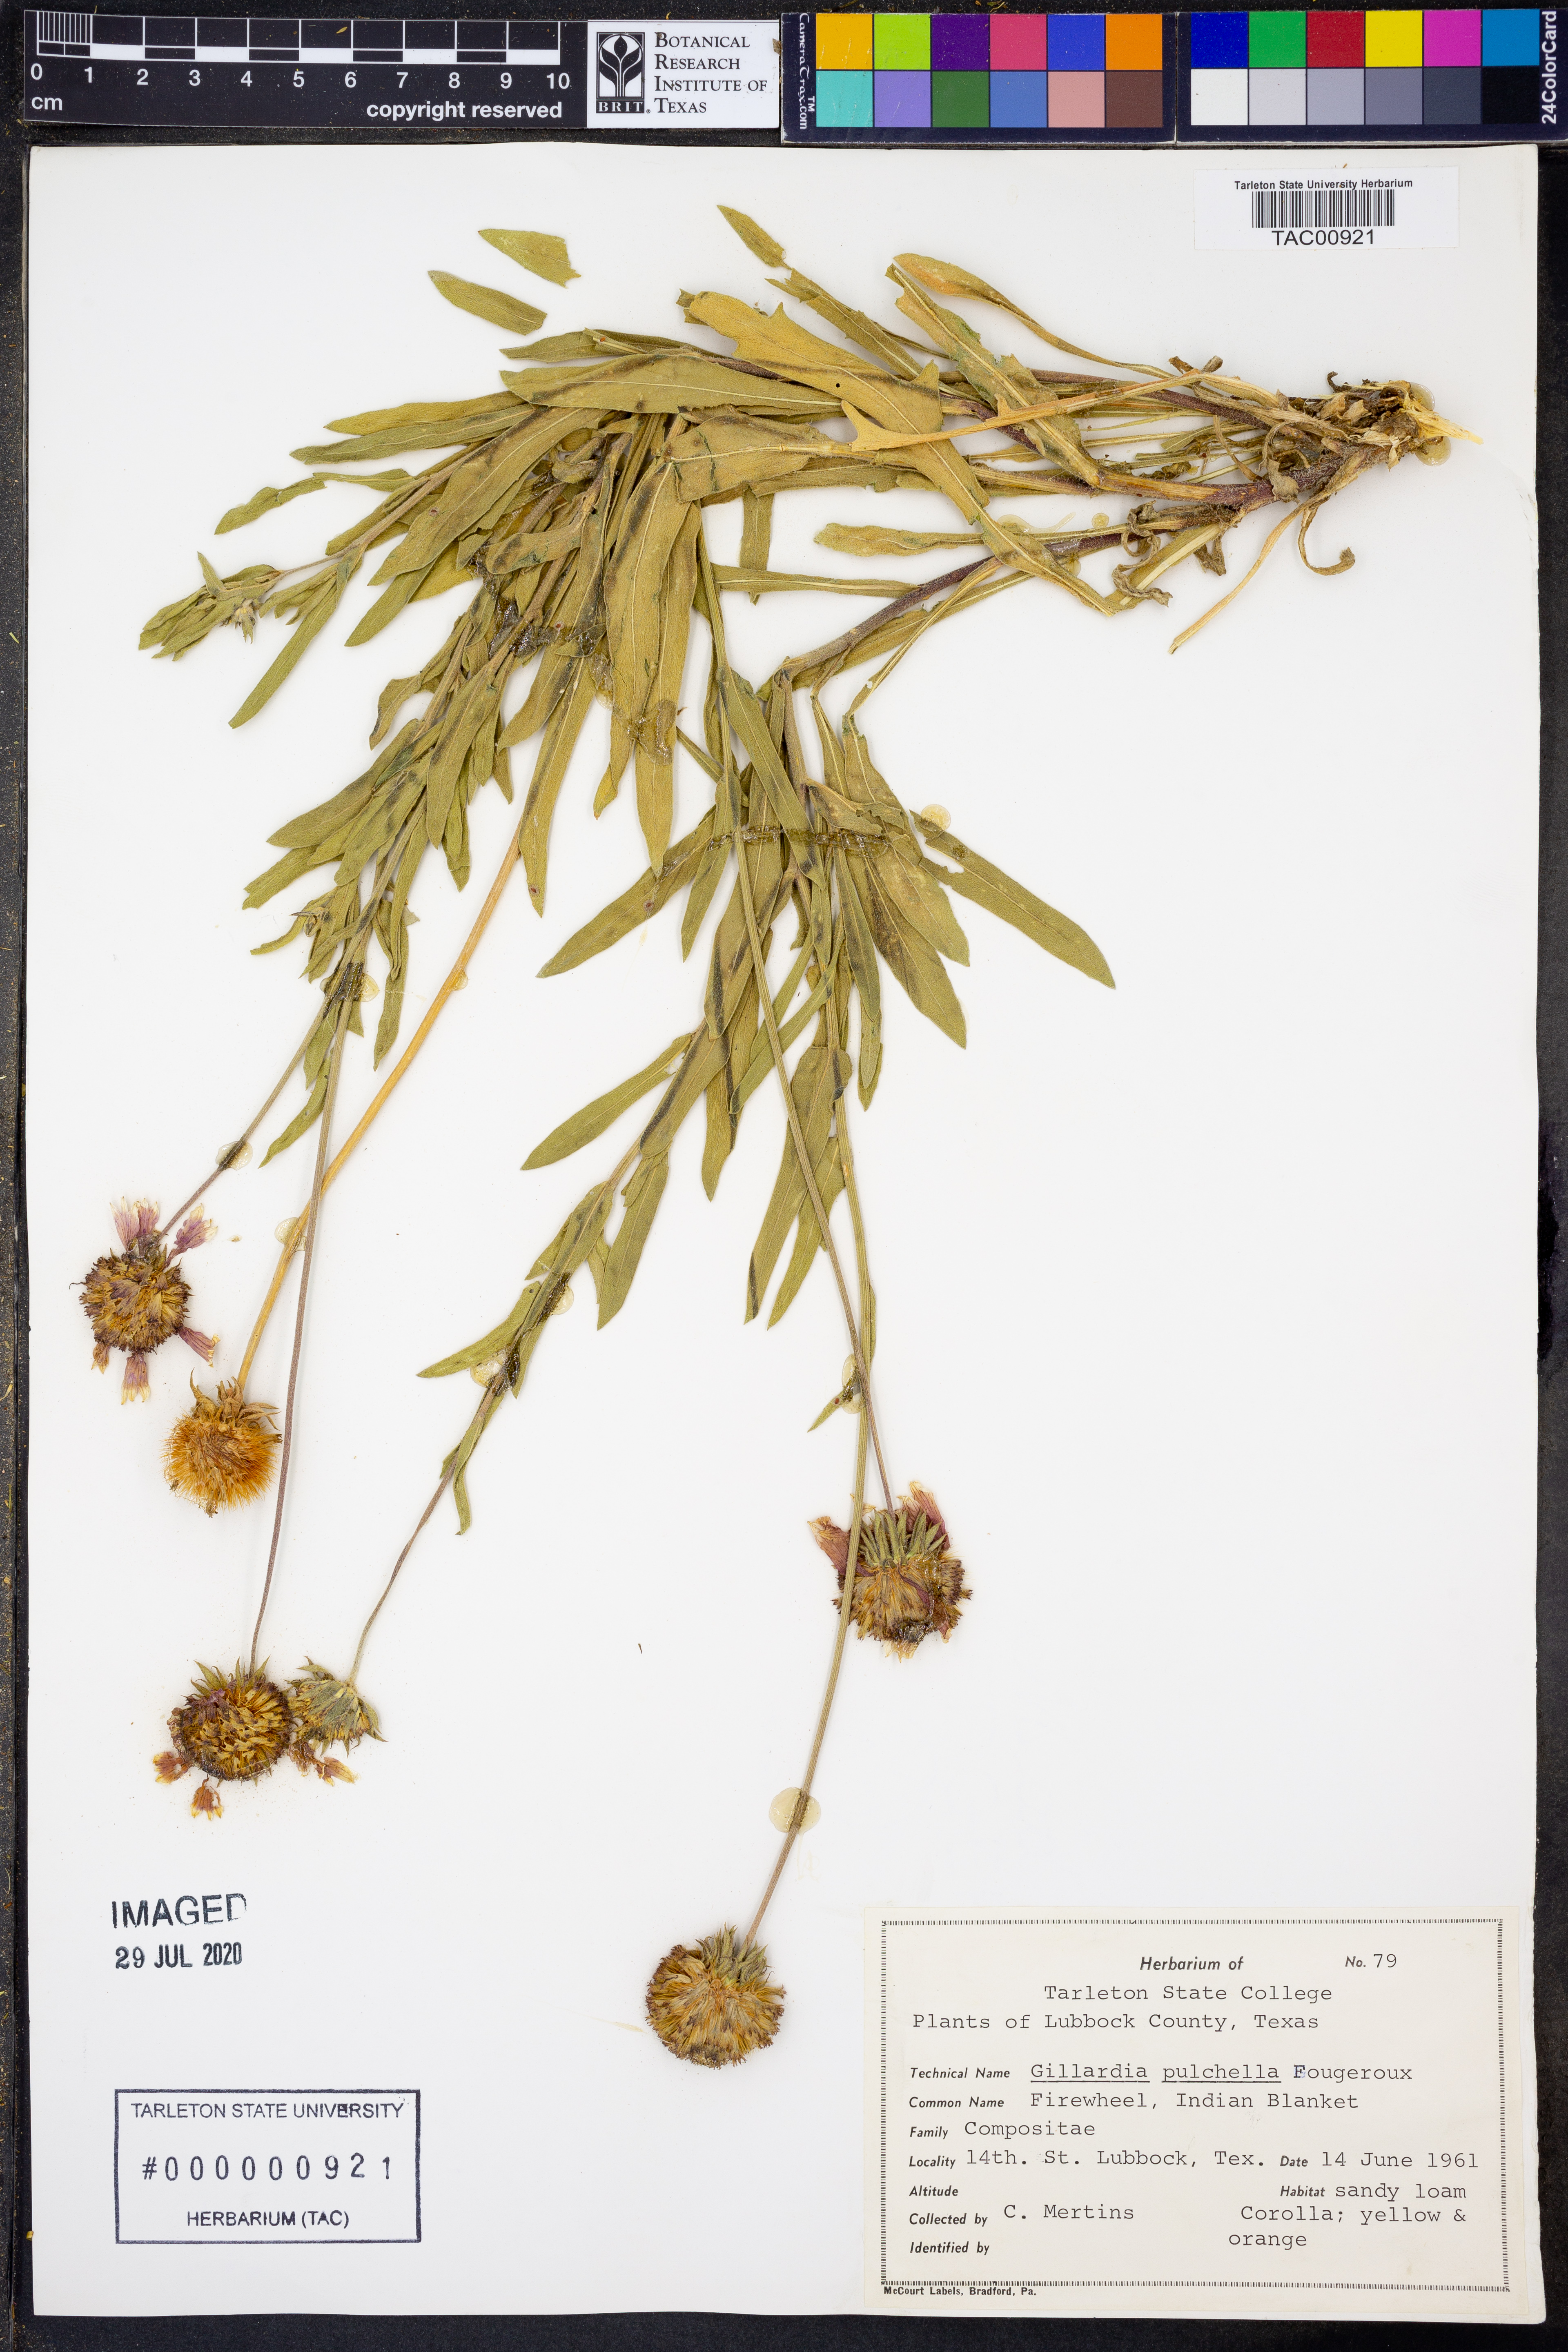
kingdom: Plantae
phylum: Tracheophyta
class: Magnoliopsida
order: Asterales
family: Asteraceae
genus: Gaillardia
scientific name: Gaillardia pulchella
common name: Firewheel
